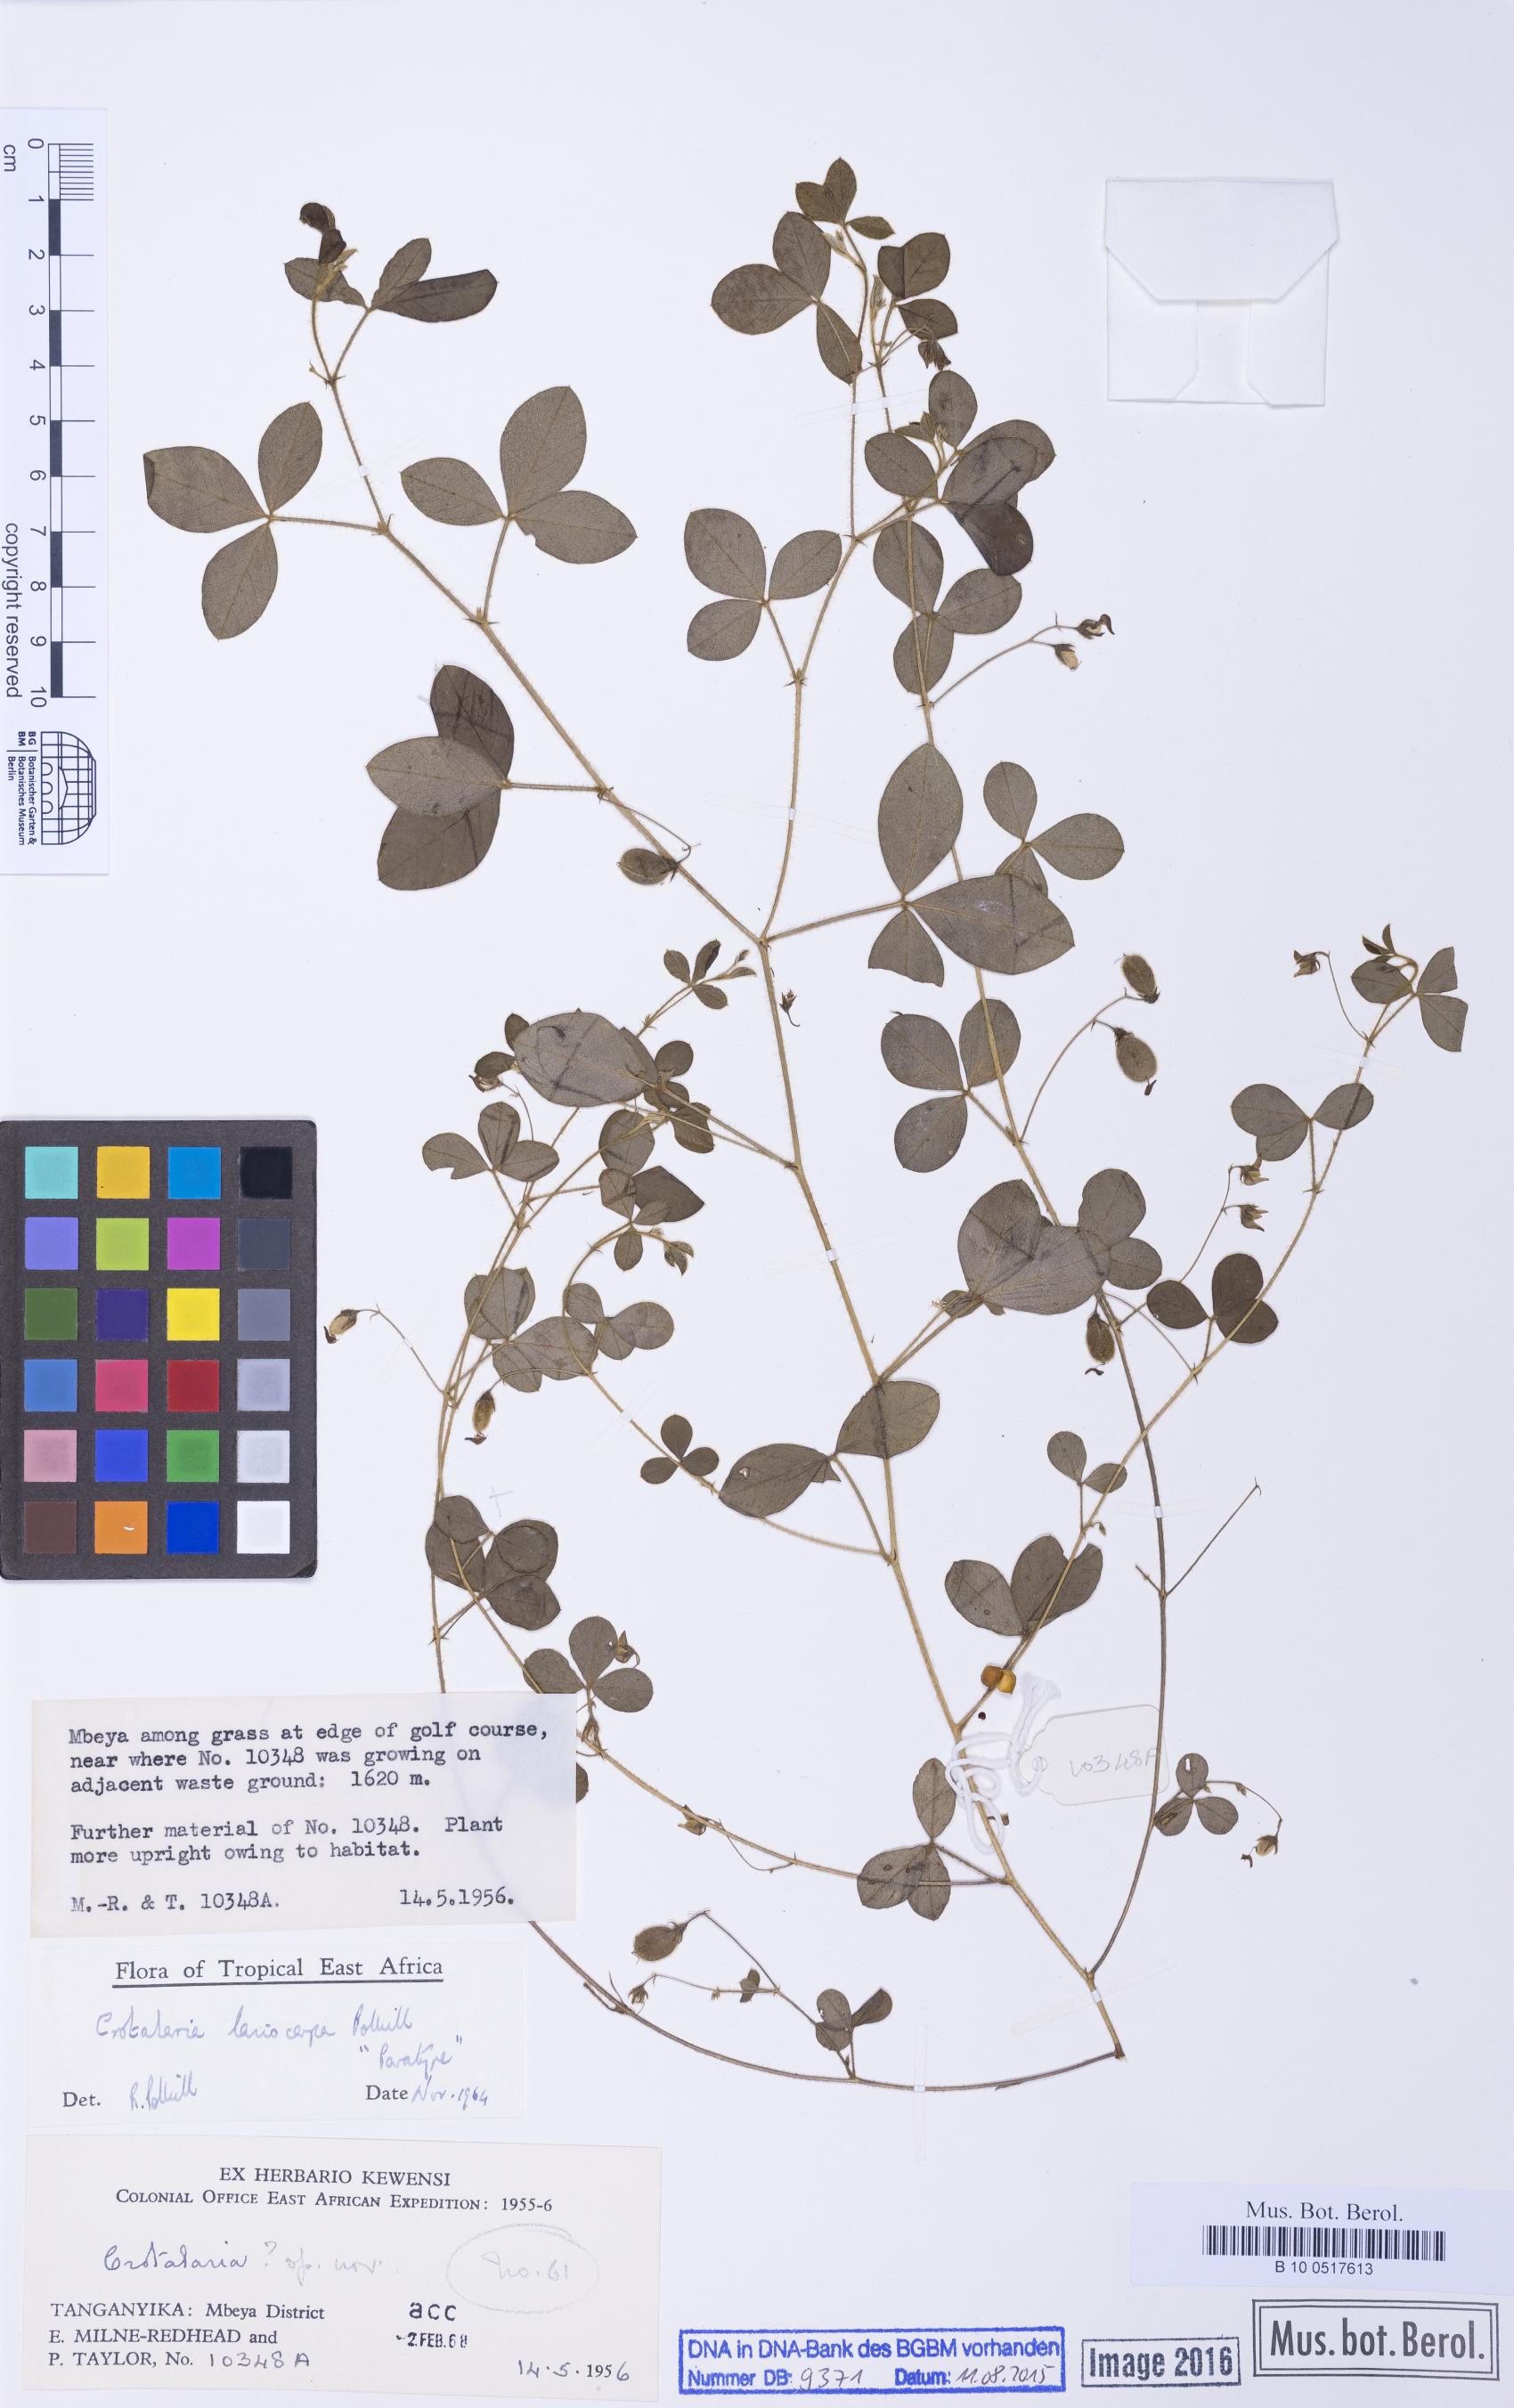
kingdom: Plantae
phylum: Tracheophyta
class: Magnoliopsida
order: Fabales
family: Fabaceae
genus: Crotalaria
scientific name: Crotalaria lasiocarpa
